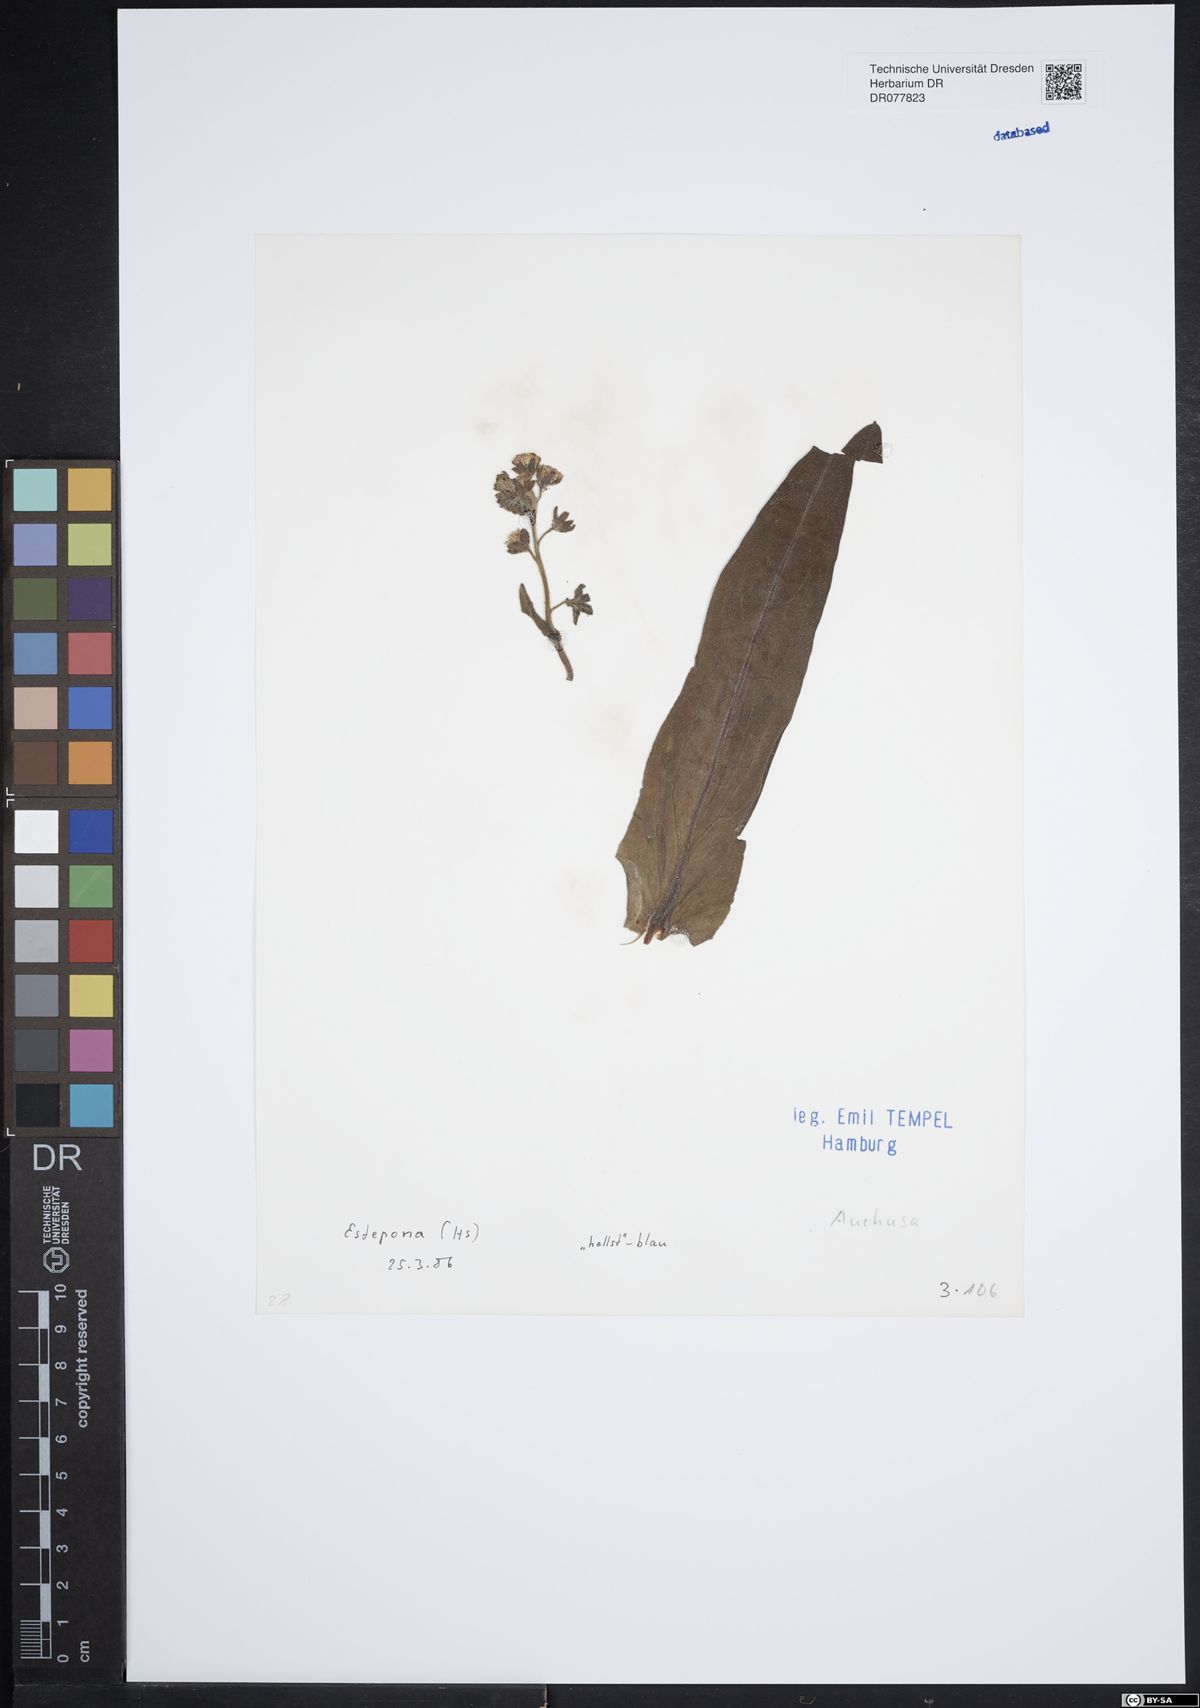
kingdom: Plantae
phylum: Tracheophyta
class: Magnoliopsida
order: Boraginales
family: Boraginaceae
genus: Anchusa
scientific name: Anchusa
